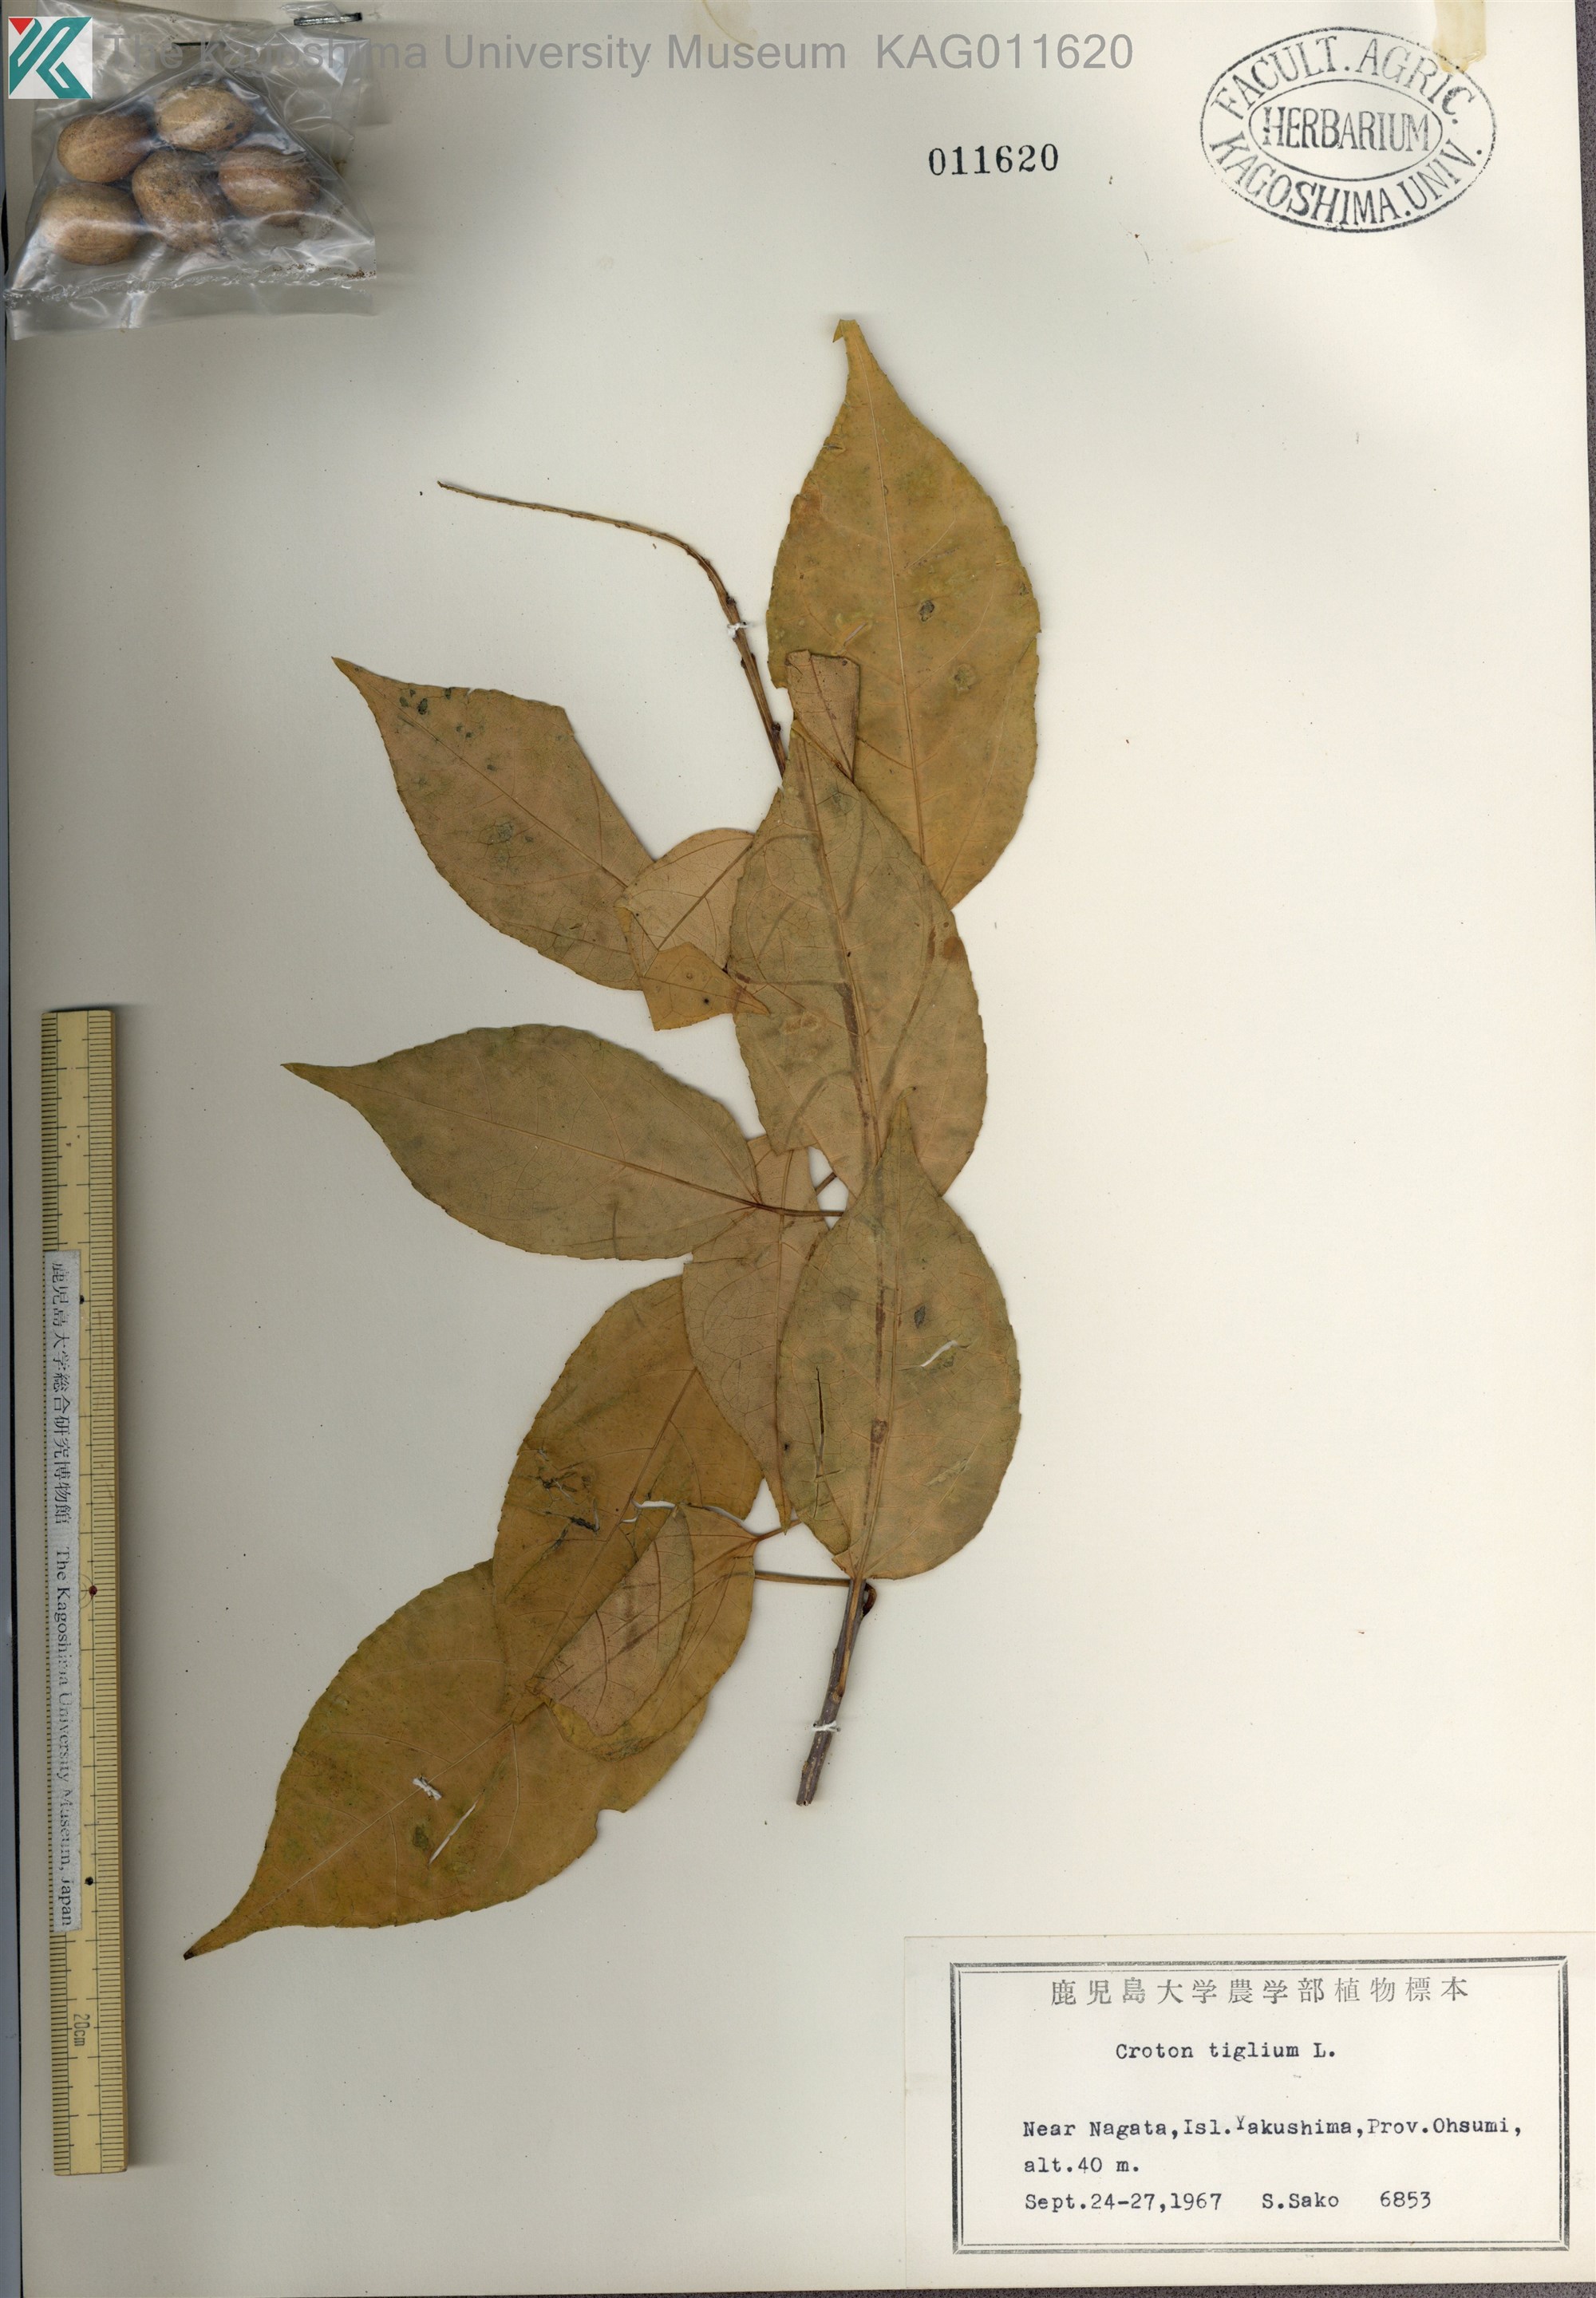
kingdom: Plantae
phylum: Tracheophyta
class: Magnoliopsida
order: Malpighiales
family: Euphorbiaceae
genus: Croton
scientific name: Croton tiglium
